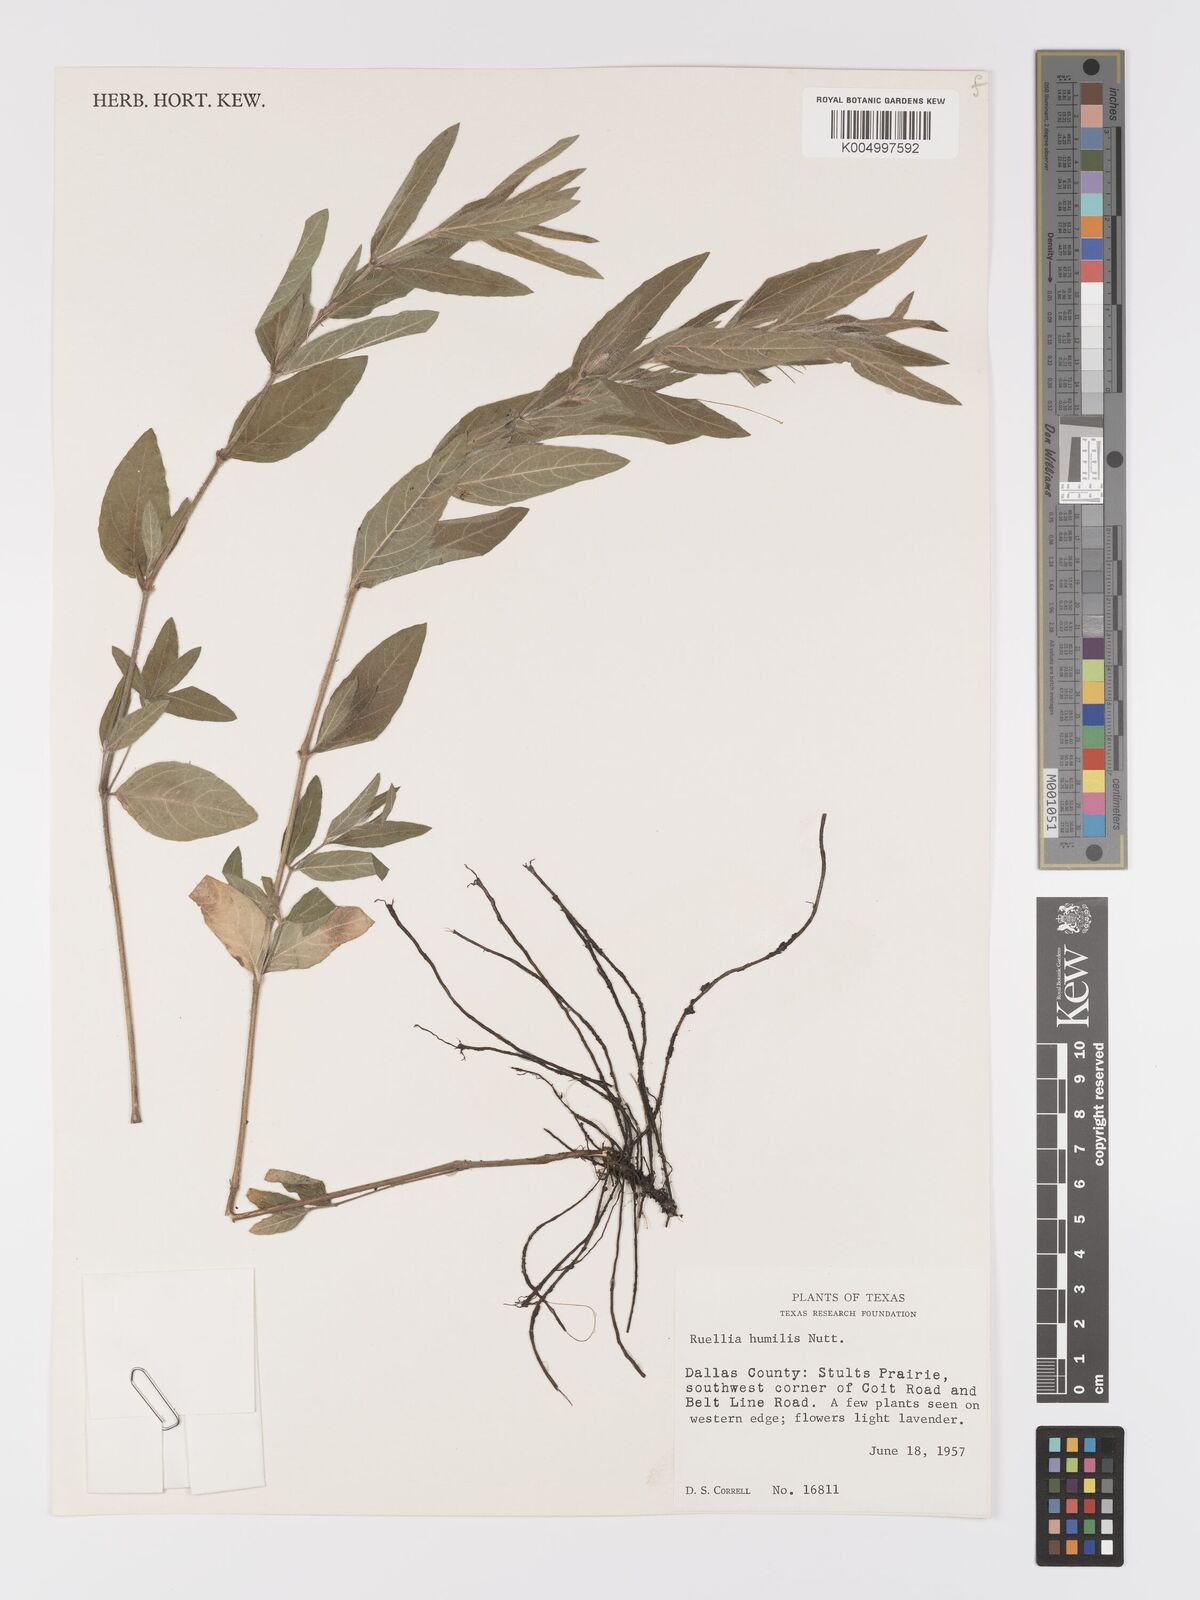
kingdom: Plantae
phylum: Tracheophyta
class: Magnoliopsida
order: Lamiales
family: Acanthaceae
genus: Ruellia
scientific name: Ruellia
